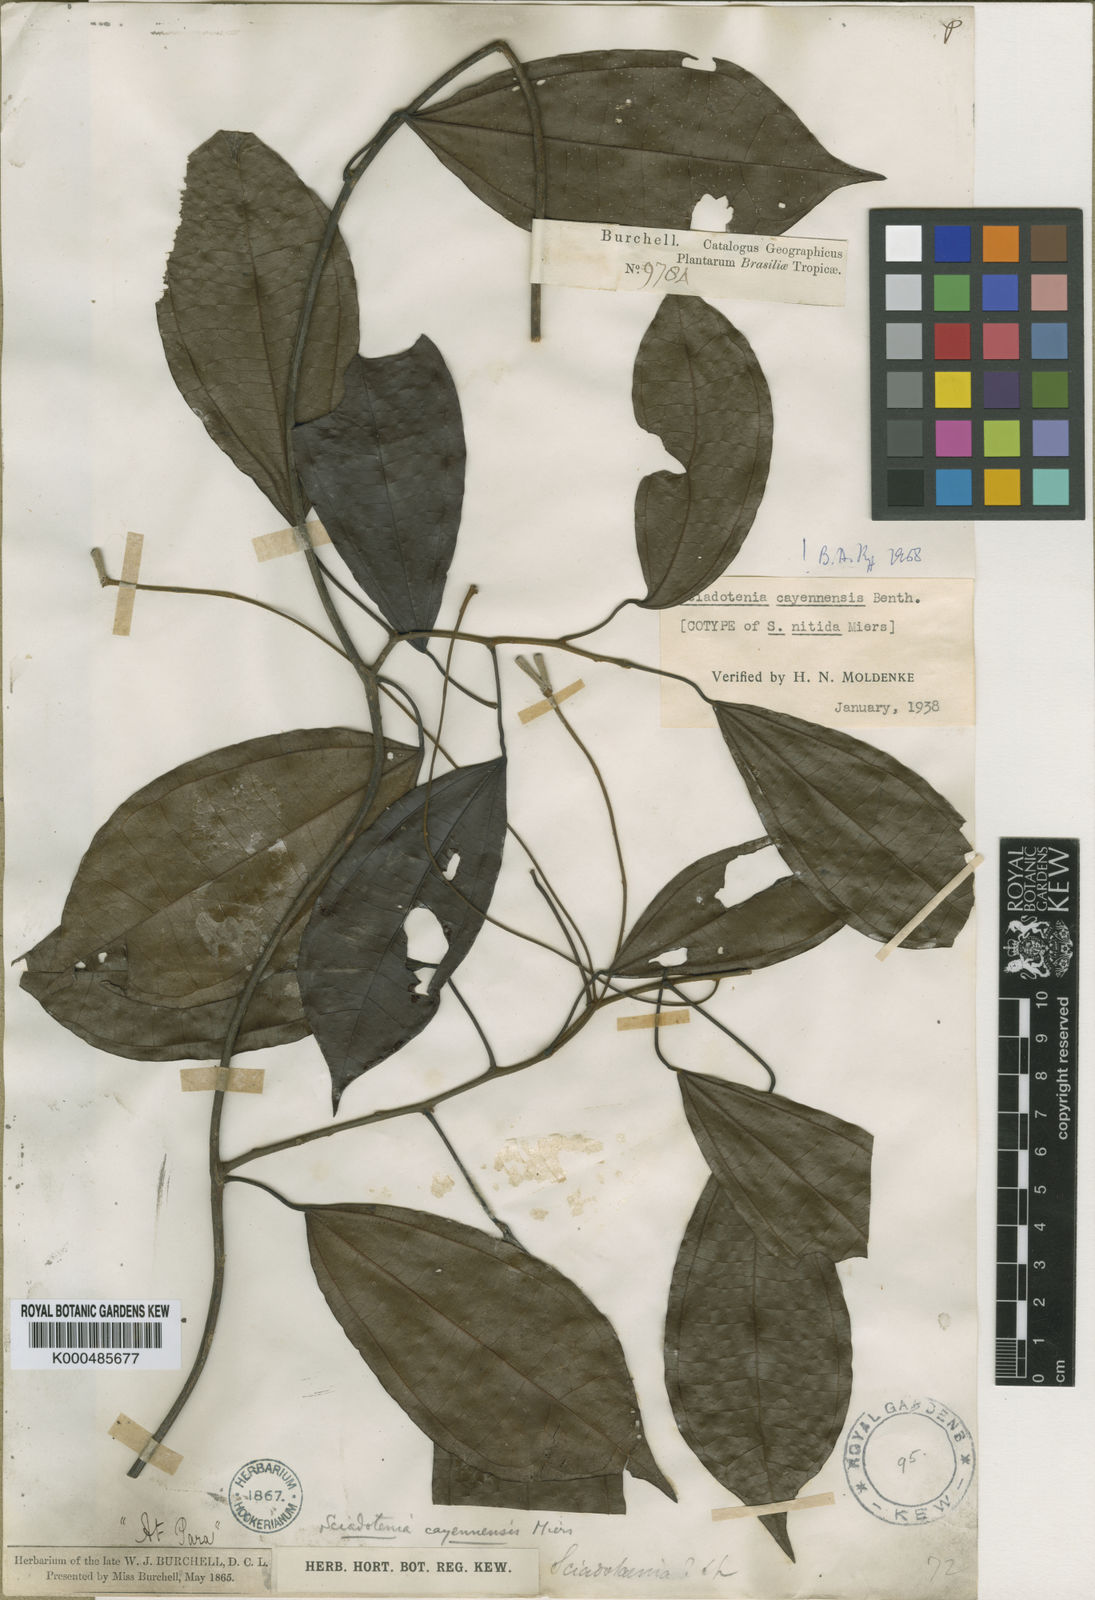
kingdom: Plantae
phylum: Tracheophyta
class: Magnoliopsida
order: Ranunculales
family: Menispermaceae
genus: Sciadotenia
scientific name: Sciadotenia cayennensis
